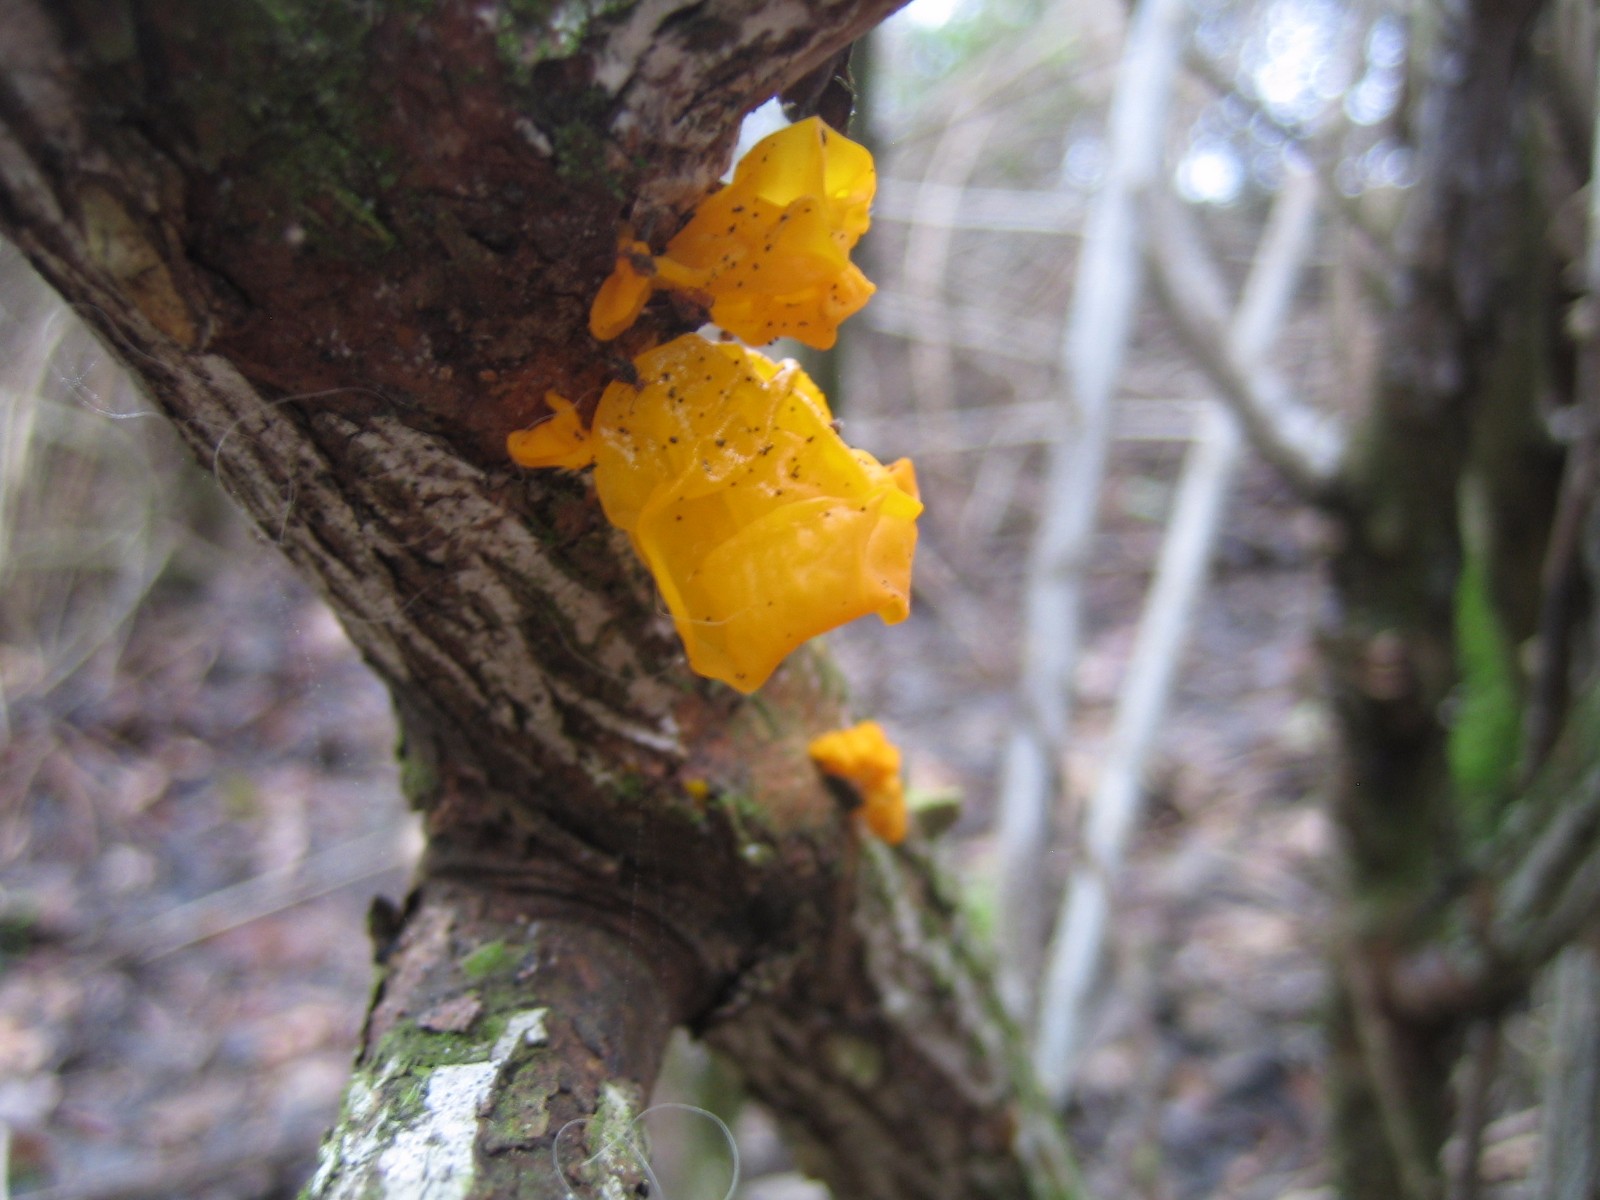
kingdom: Fungi
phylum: Basidiomycota
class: Tremellomycetes
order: Tremellales
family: Tremellaceae
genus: Tremella
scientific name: Tremella mesenterica
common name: gul bævresvamp
